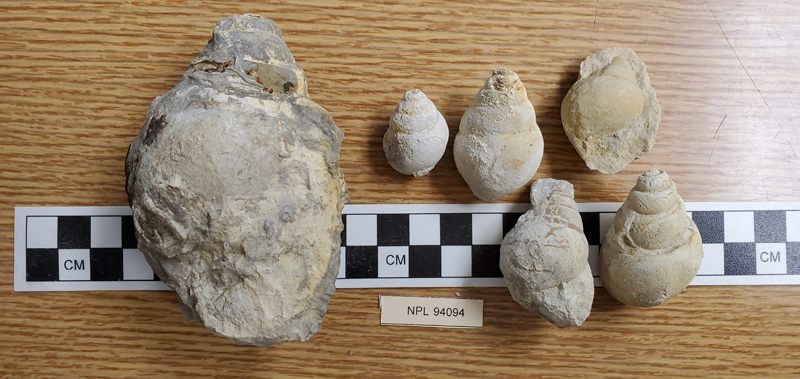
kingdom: Animalia
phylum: Mollusca
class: Gastropoda
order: Littorinimorpha
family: Tylostomatidae
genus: Tylostoma
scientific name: Tylostoma
